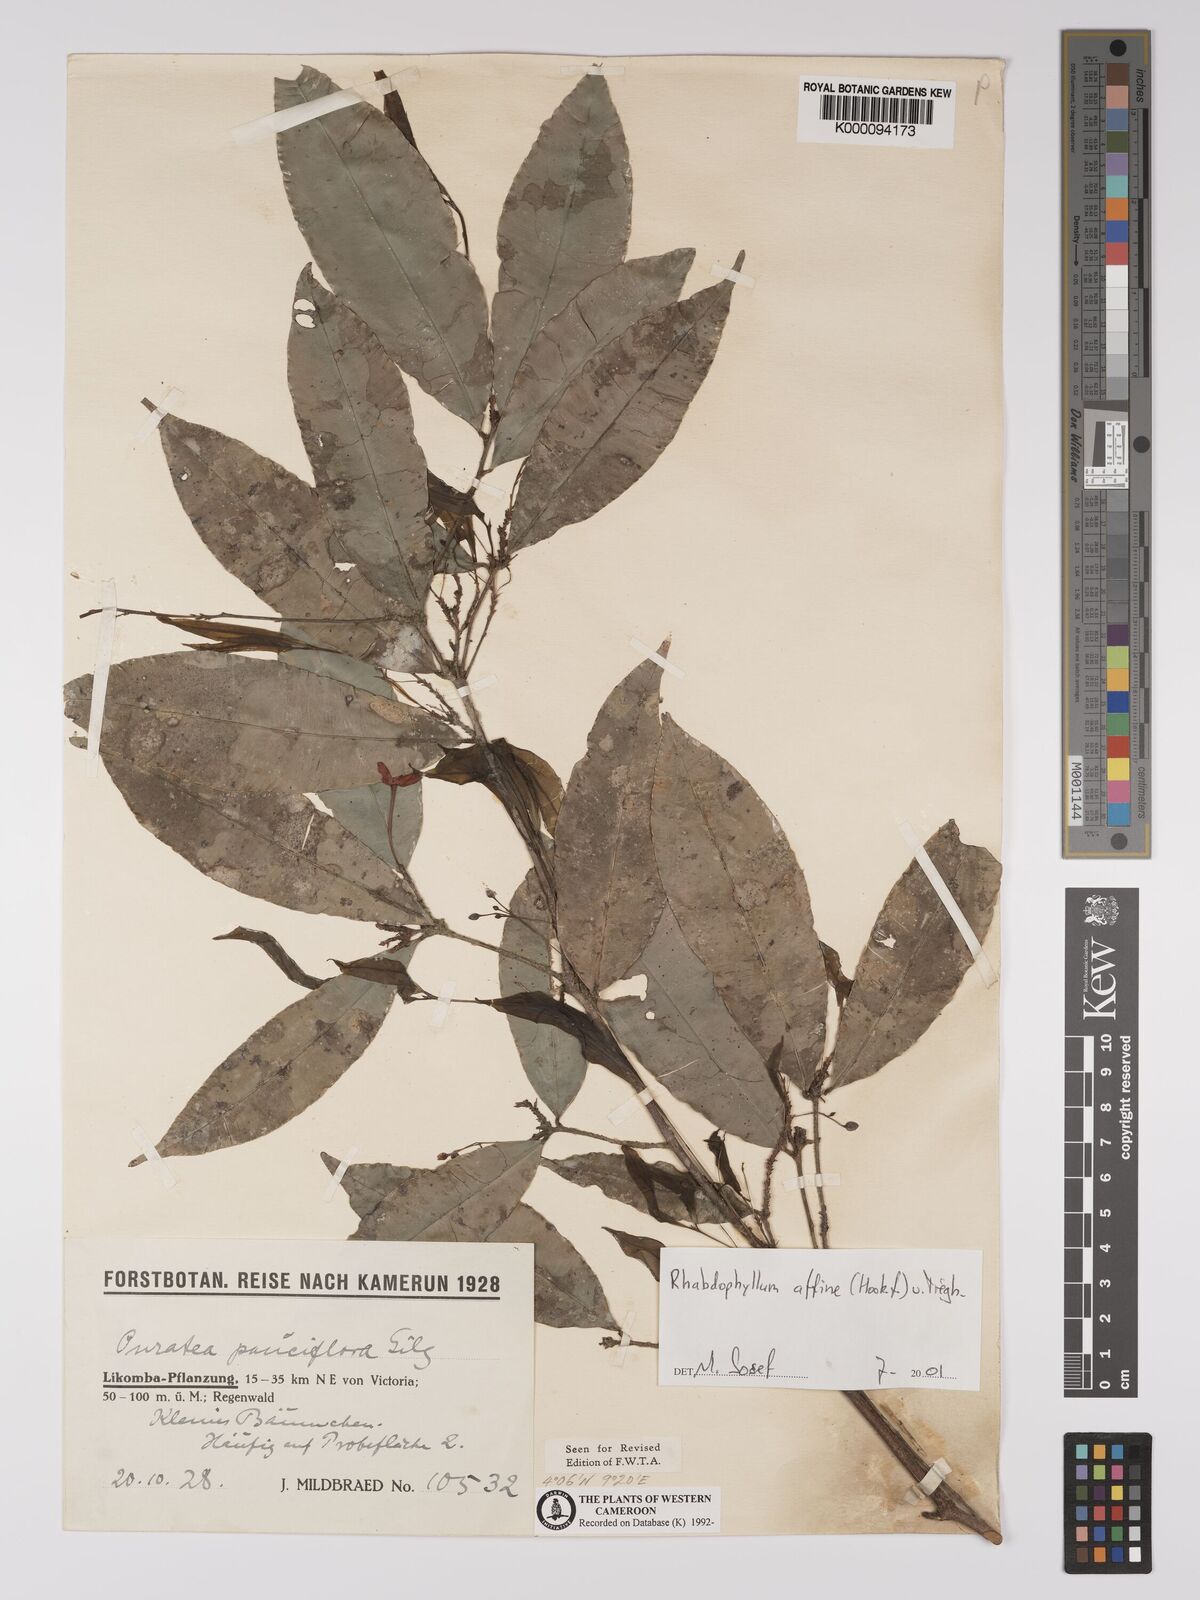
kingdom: Plantae
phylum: Tracheophyta
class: Magnoliopsida
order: Malpighiales
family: Ochnaceae
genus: Rhabdophyllum
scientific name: Rhabdophyllum affine
